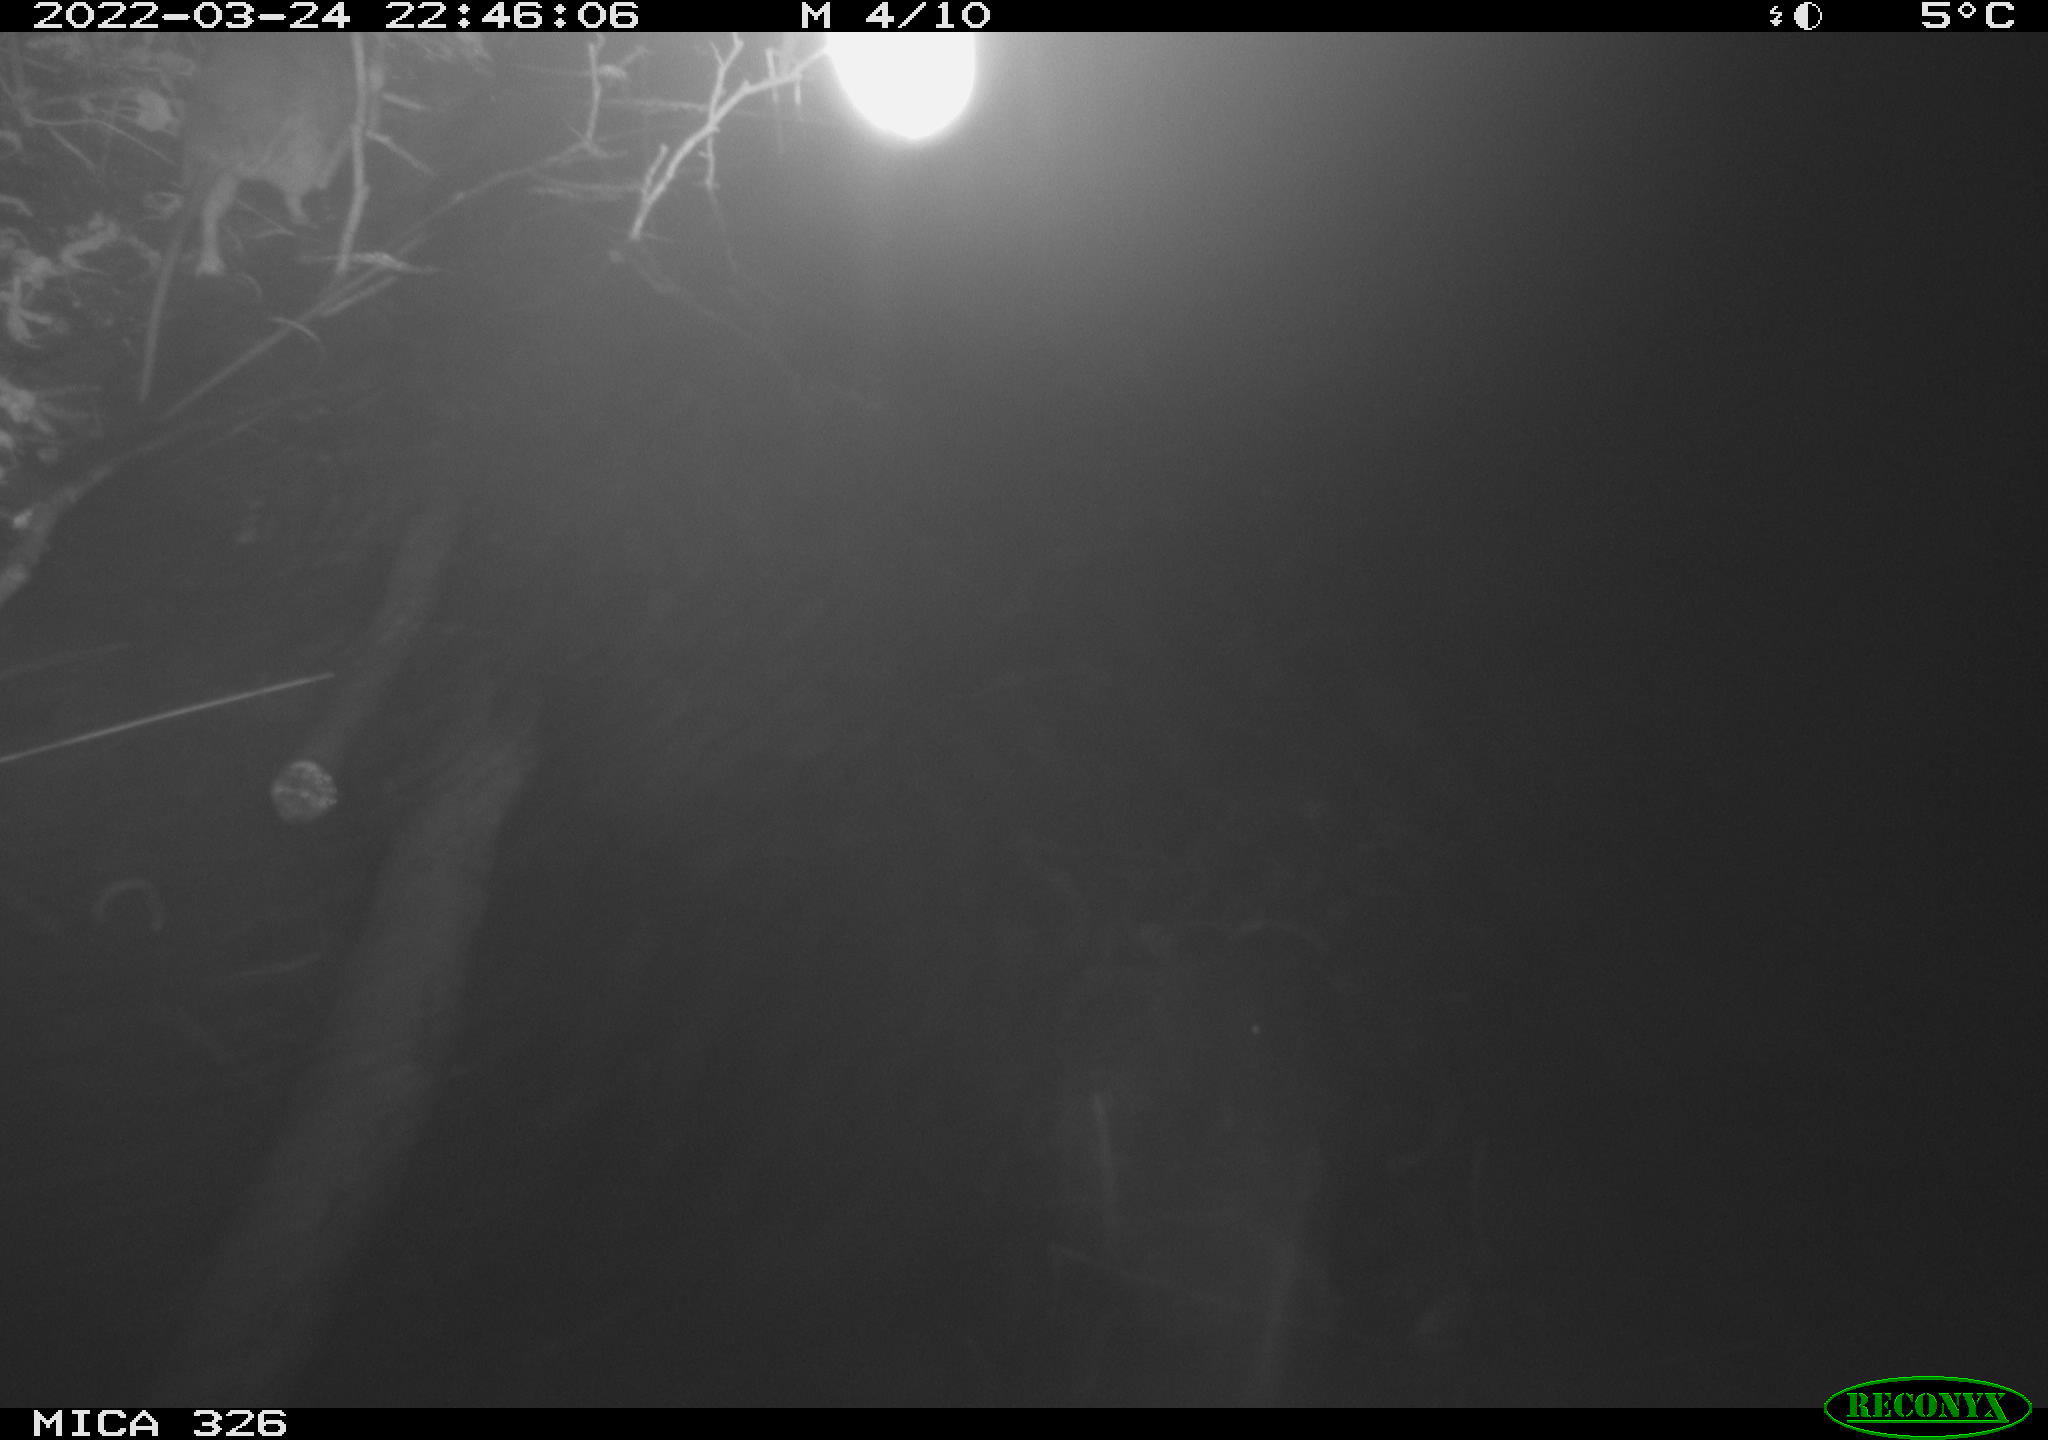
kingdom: Animalia
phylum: Chordata
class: Mammalia
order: Rodentia
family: Muridae
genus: Rattus
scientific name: Rattus norvegicus
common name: Brown rat
